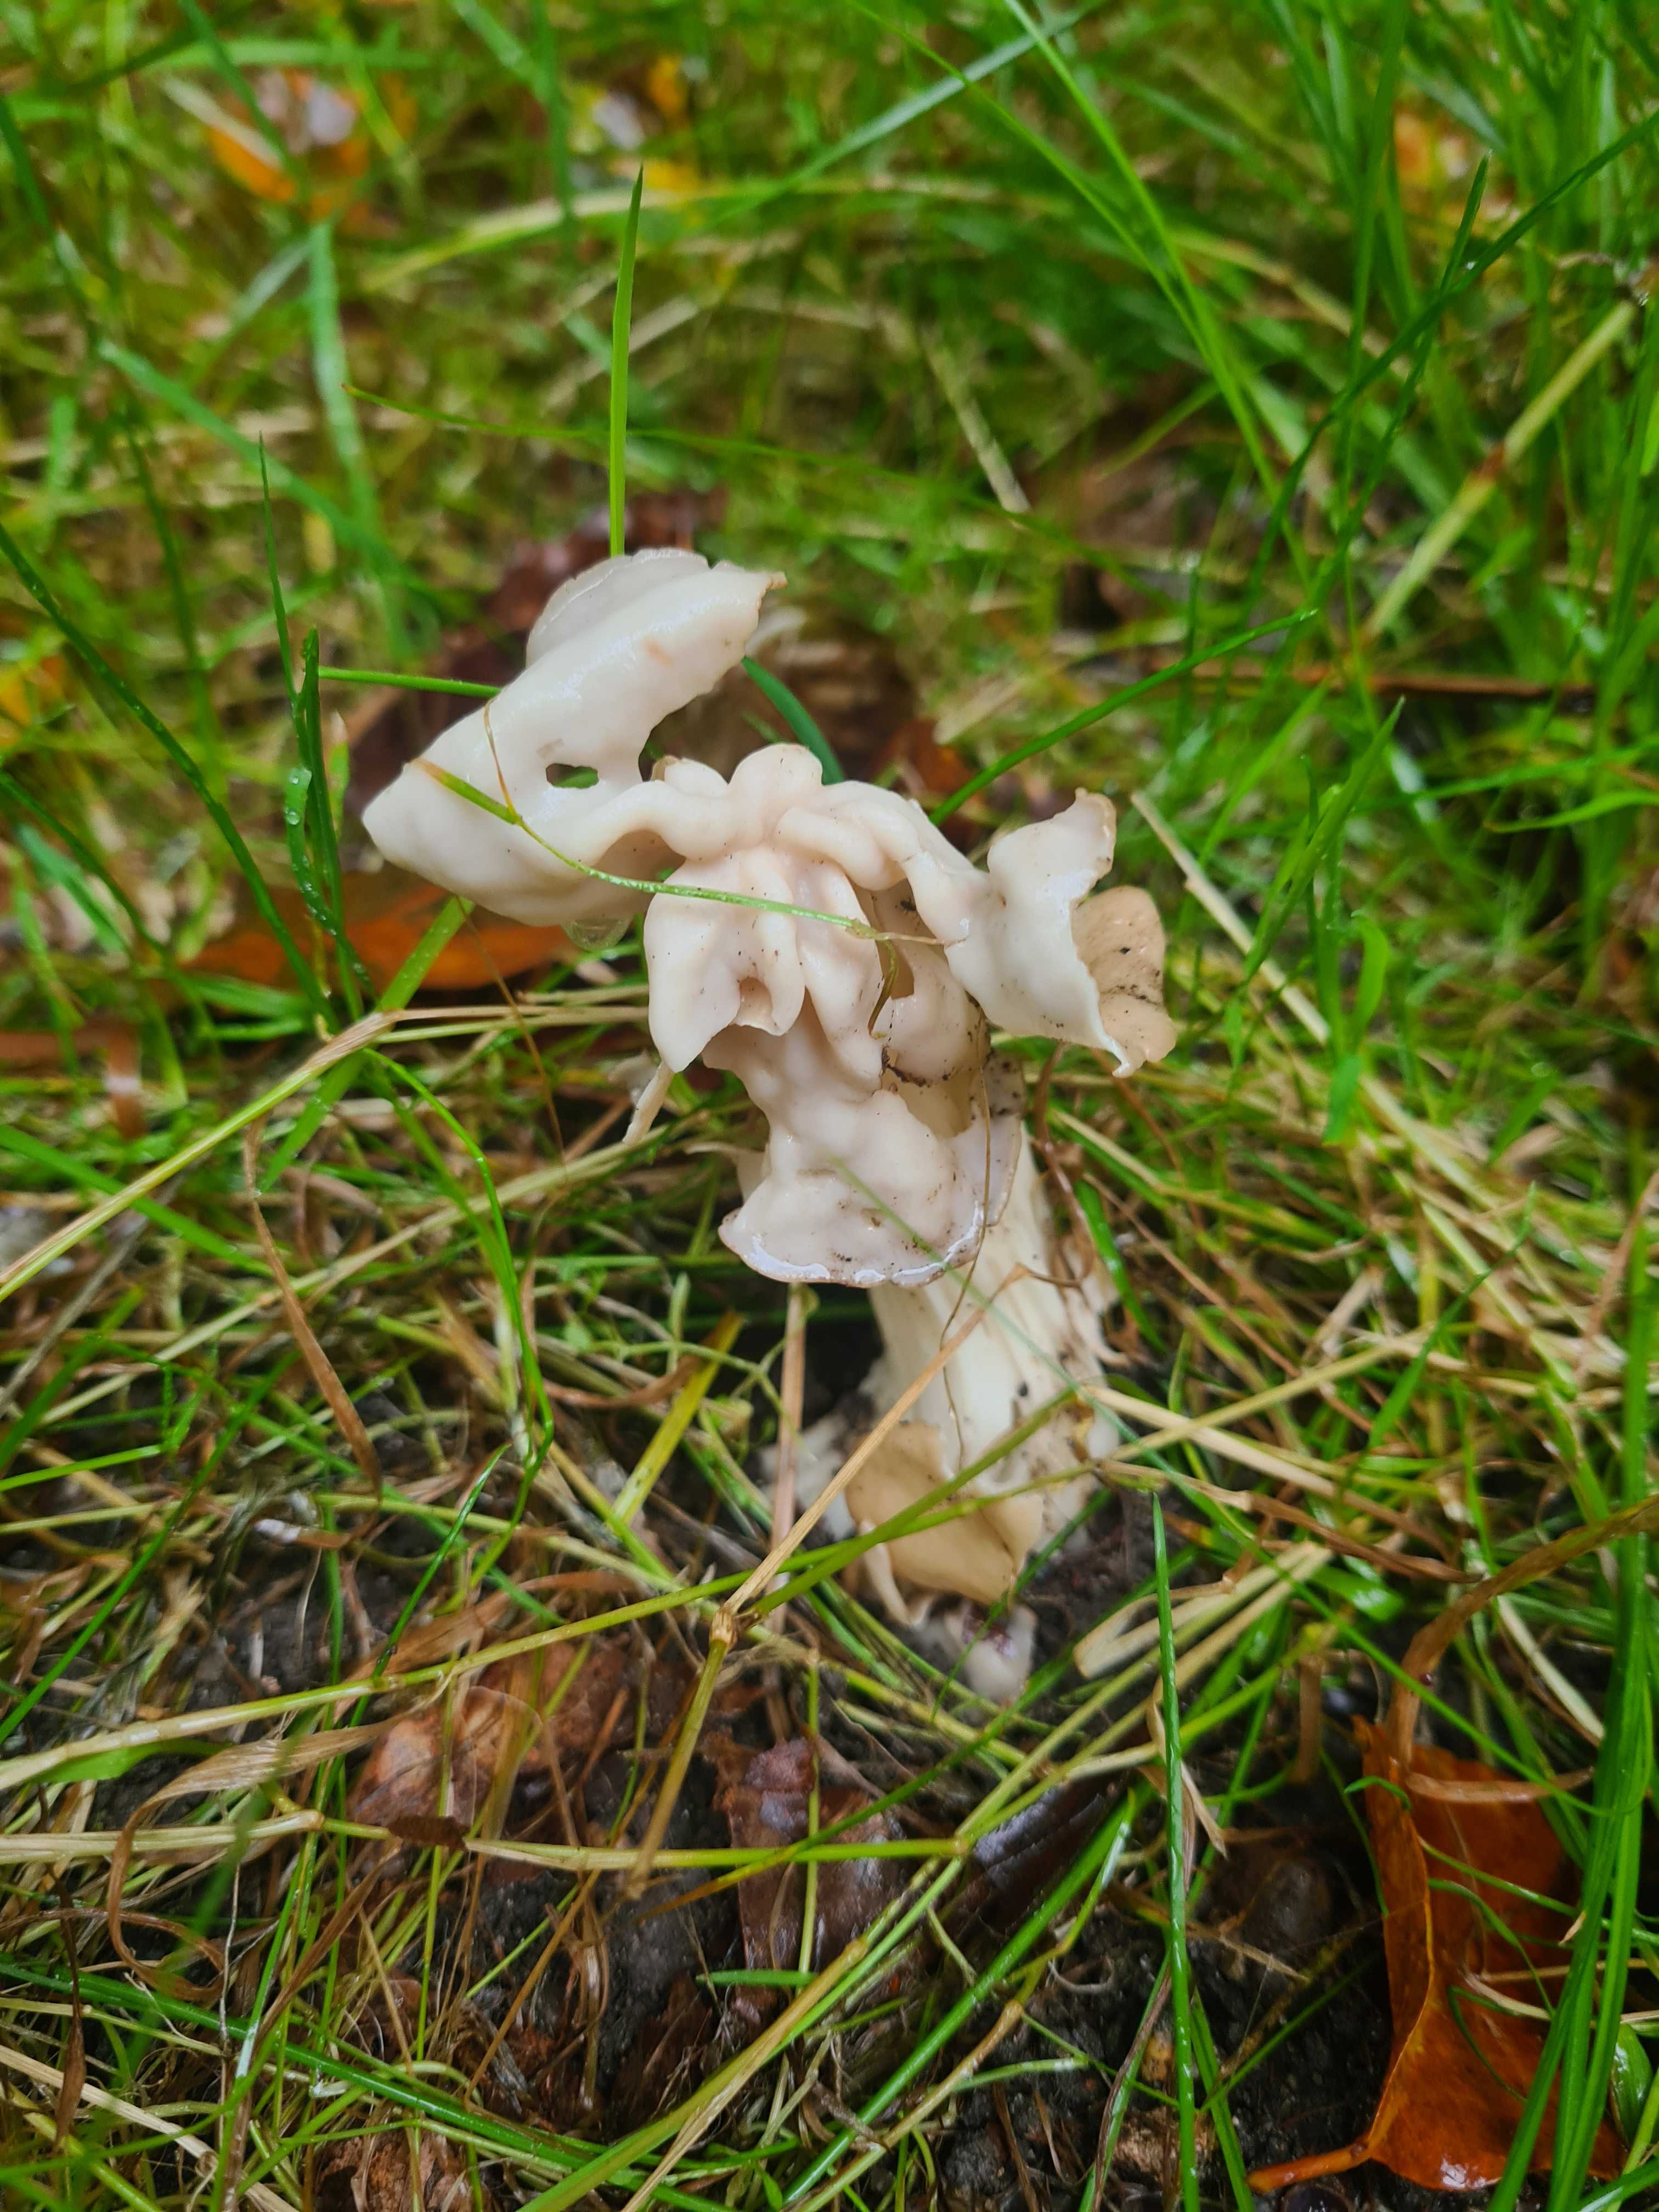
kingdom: Fungi
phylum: Ascomycota
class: Pezizomycetes
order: Pezizales
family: Helvellaceae
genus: Helvella
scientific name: Helvella crispa
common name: kruset foldhat
